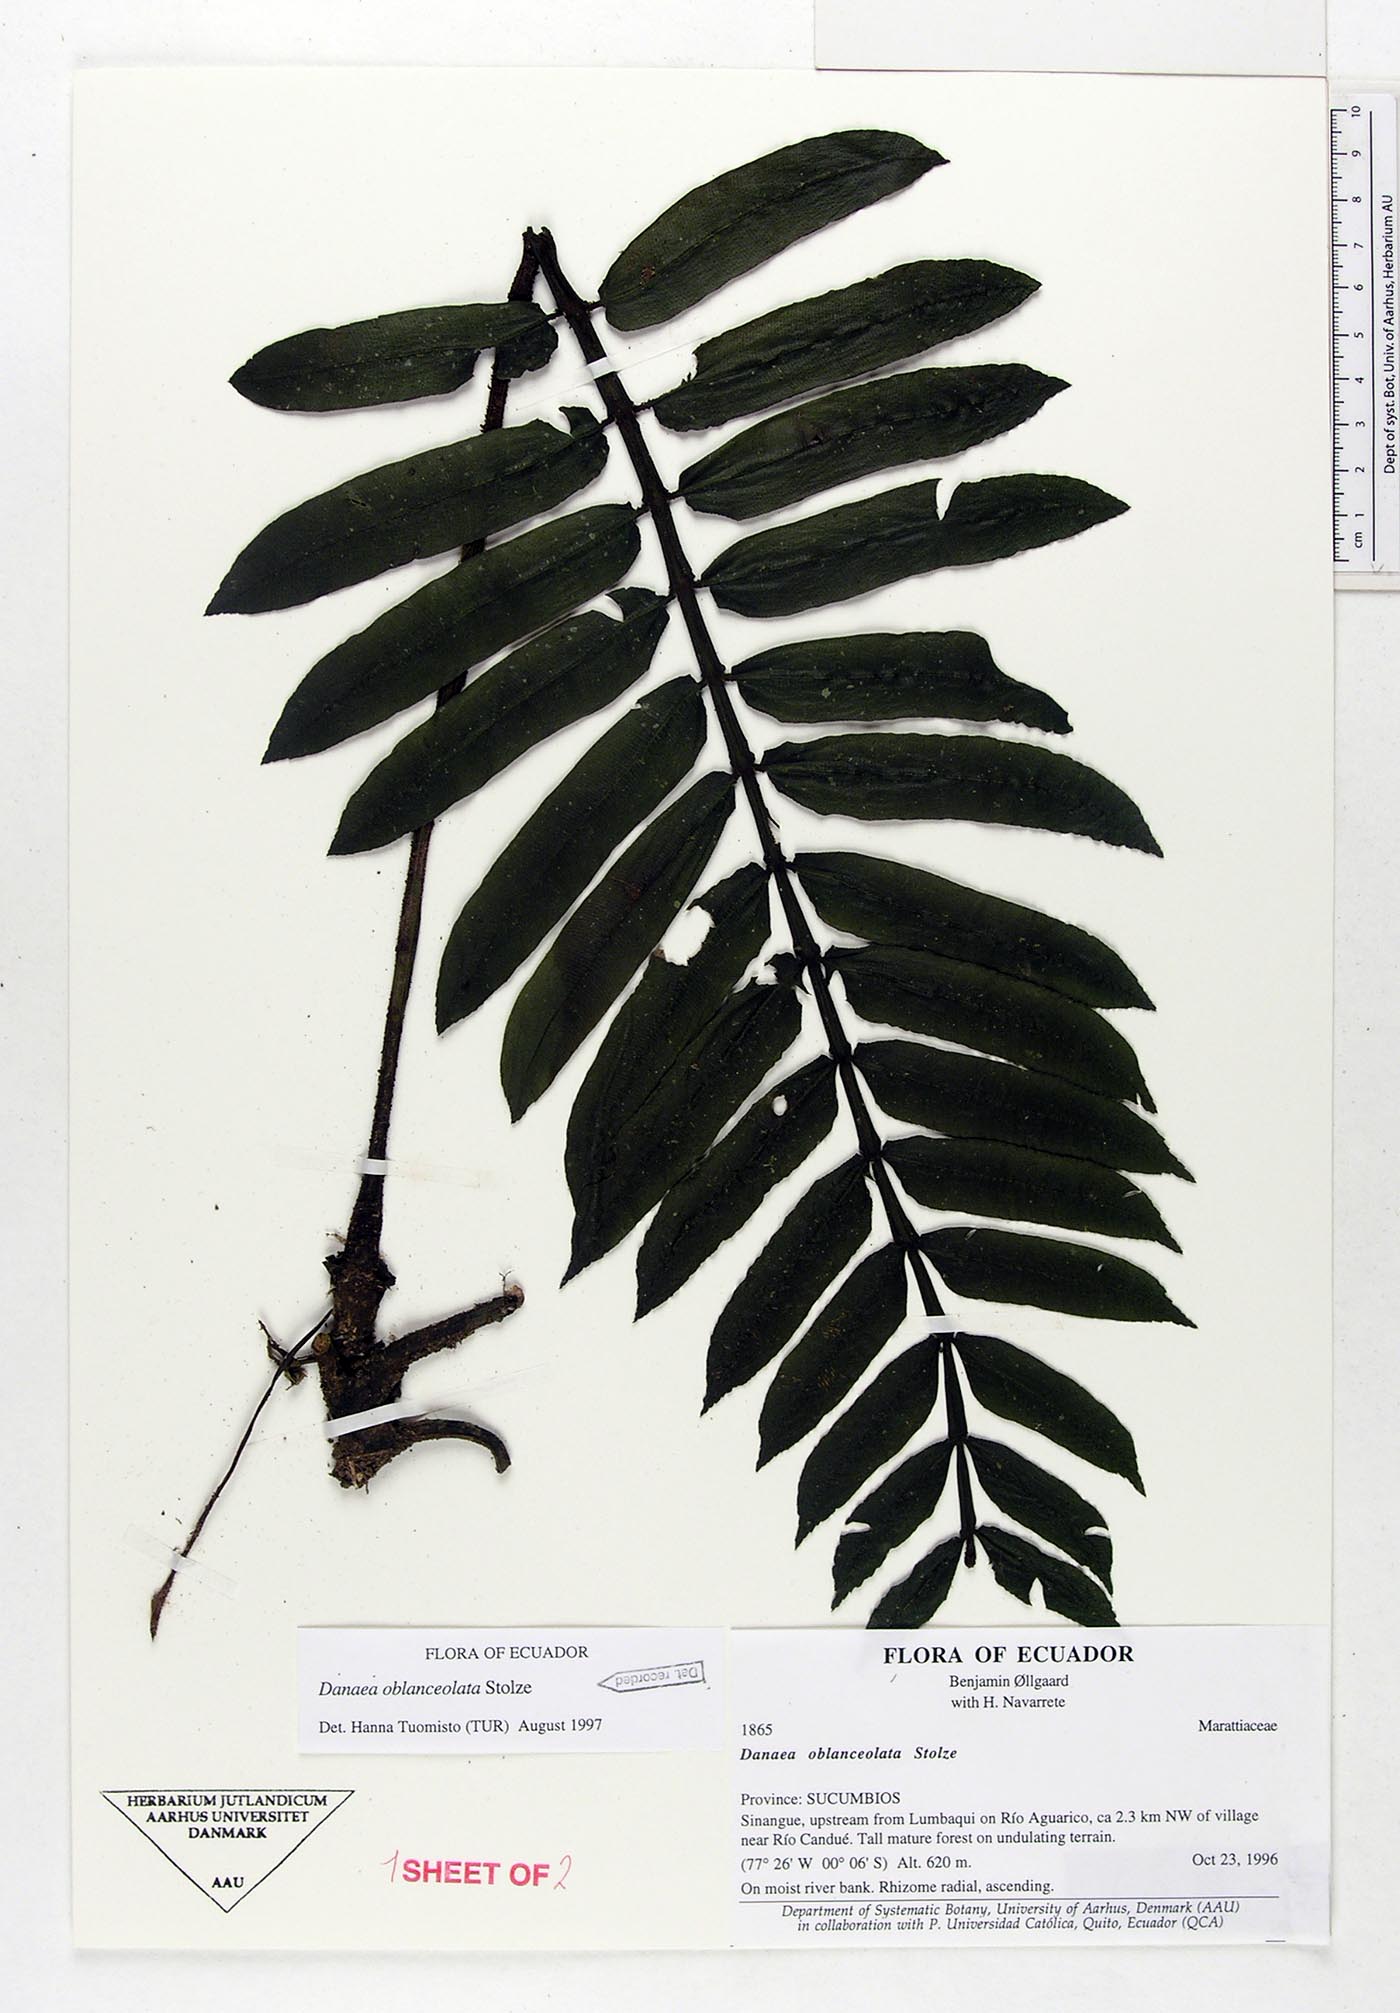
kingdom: Plantae
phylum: Tracheophyta
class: Polypodiopsida
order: Marattiales
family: Marattiaceae
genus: Danaea
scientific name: Danaea oblanceolata
